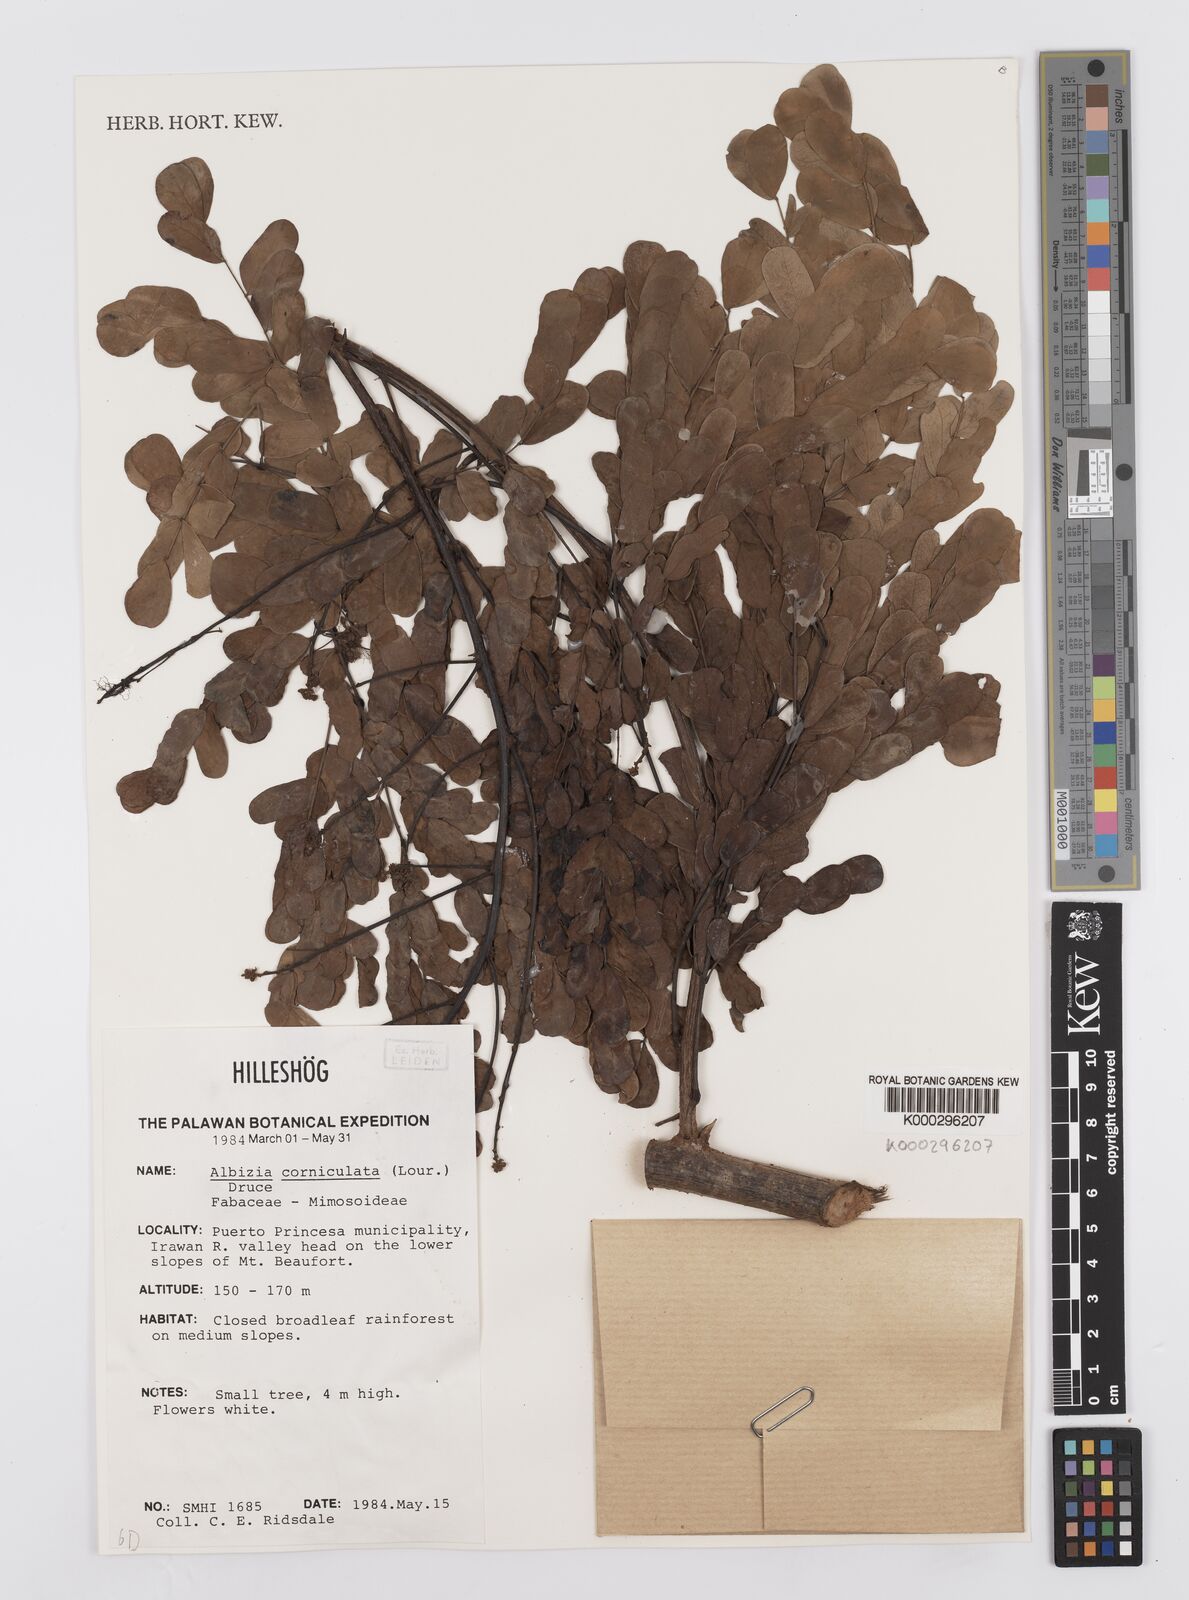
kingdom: Plantae
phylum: Tracheophyta
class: Magnoliopsida
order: Fabales
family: Fabaceae
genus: Albizia
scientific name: Albizia corniculata
